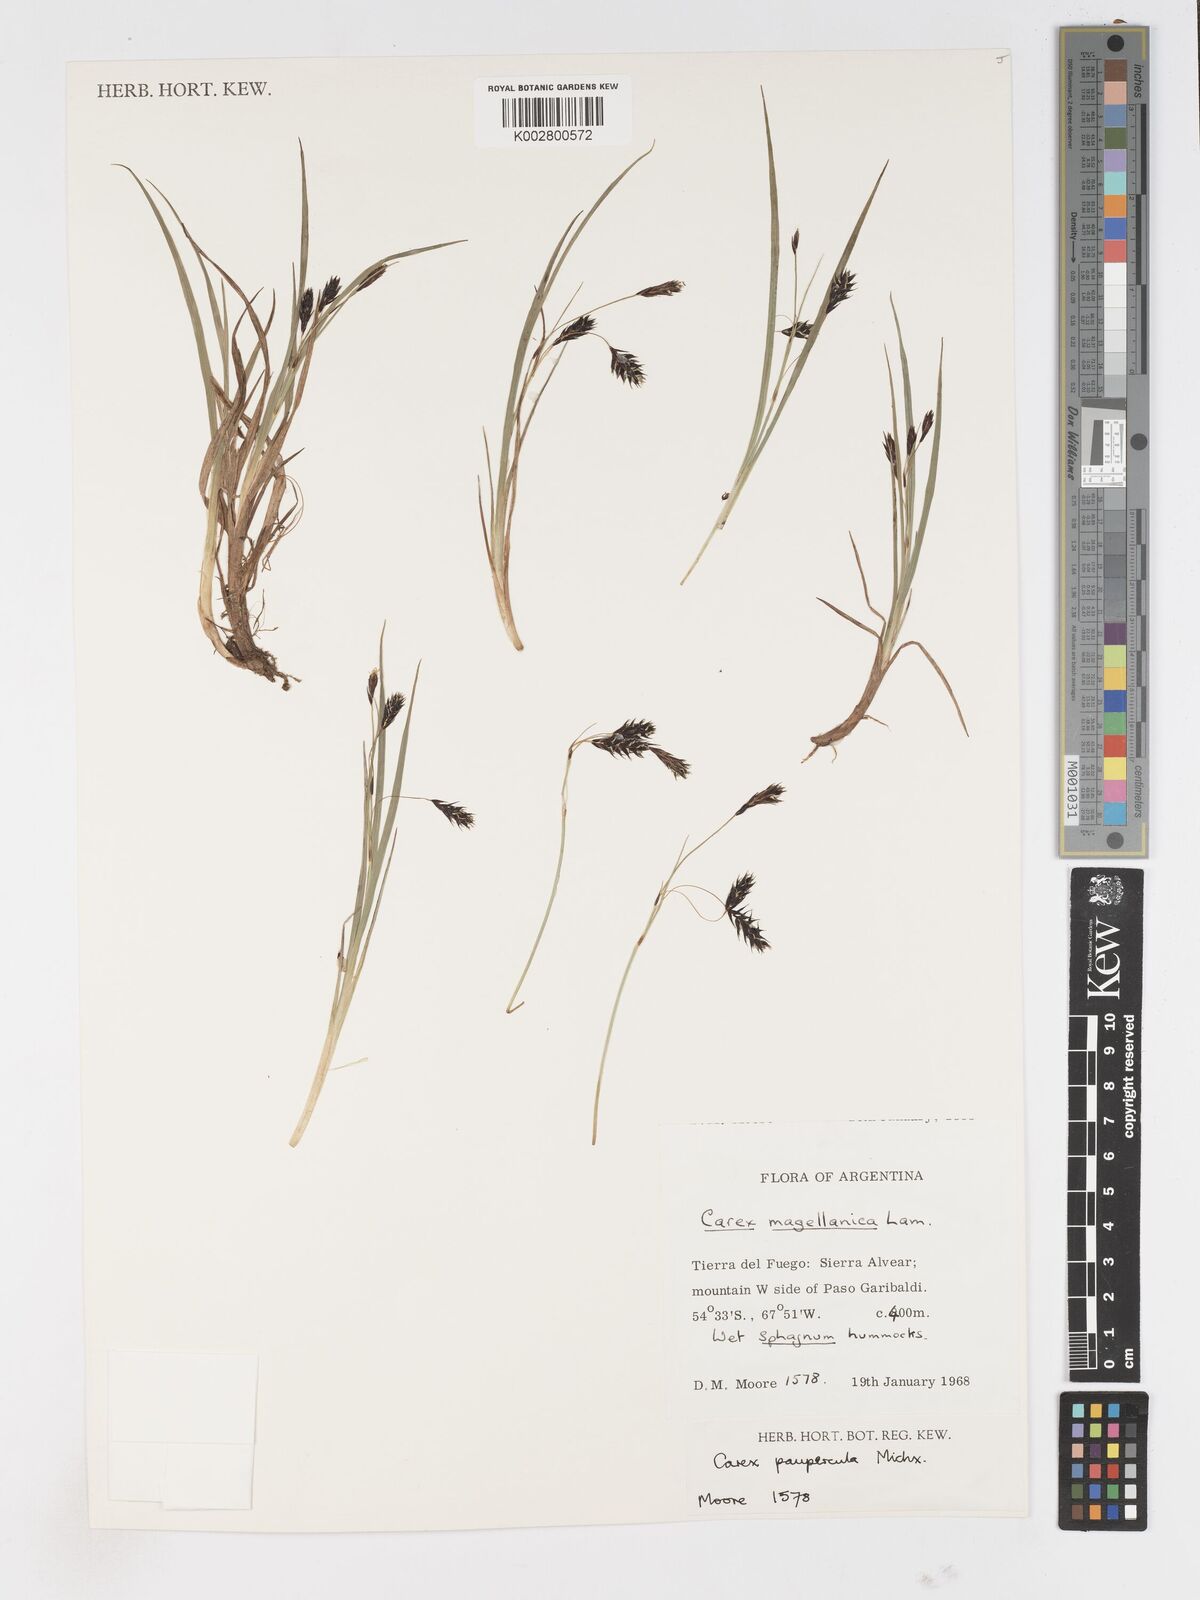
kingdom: Plantae
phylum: Tracheophyta
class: Liliopsida
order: Poales
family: Cyperaceae
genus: Carex
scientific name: Carex magellanica
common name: Bog sedge
